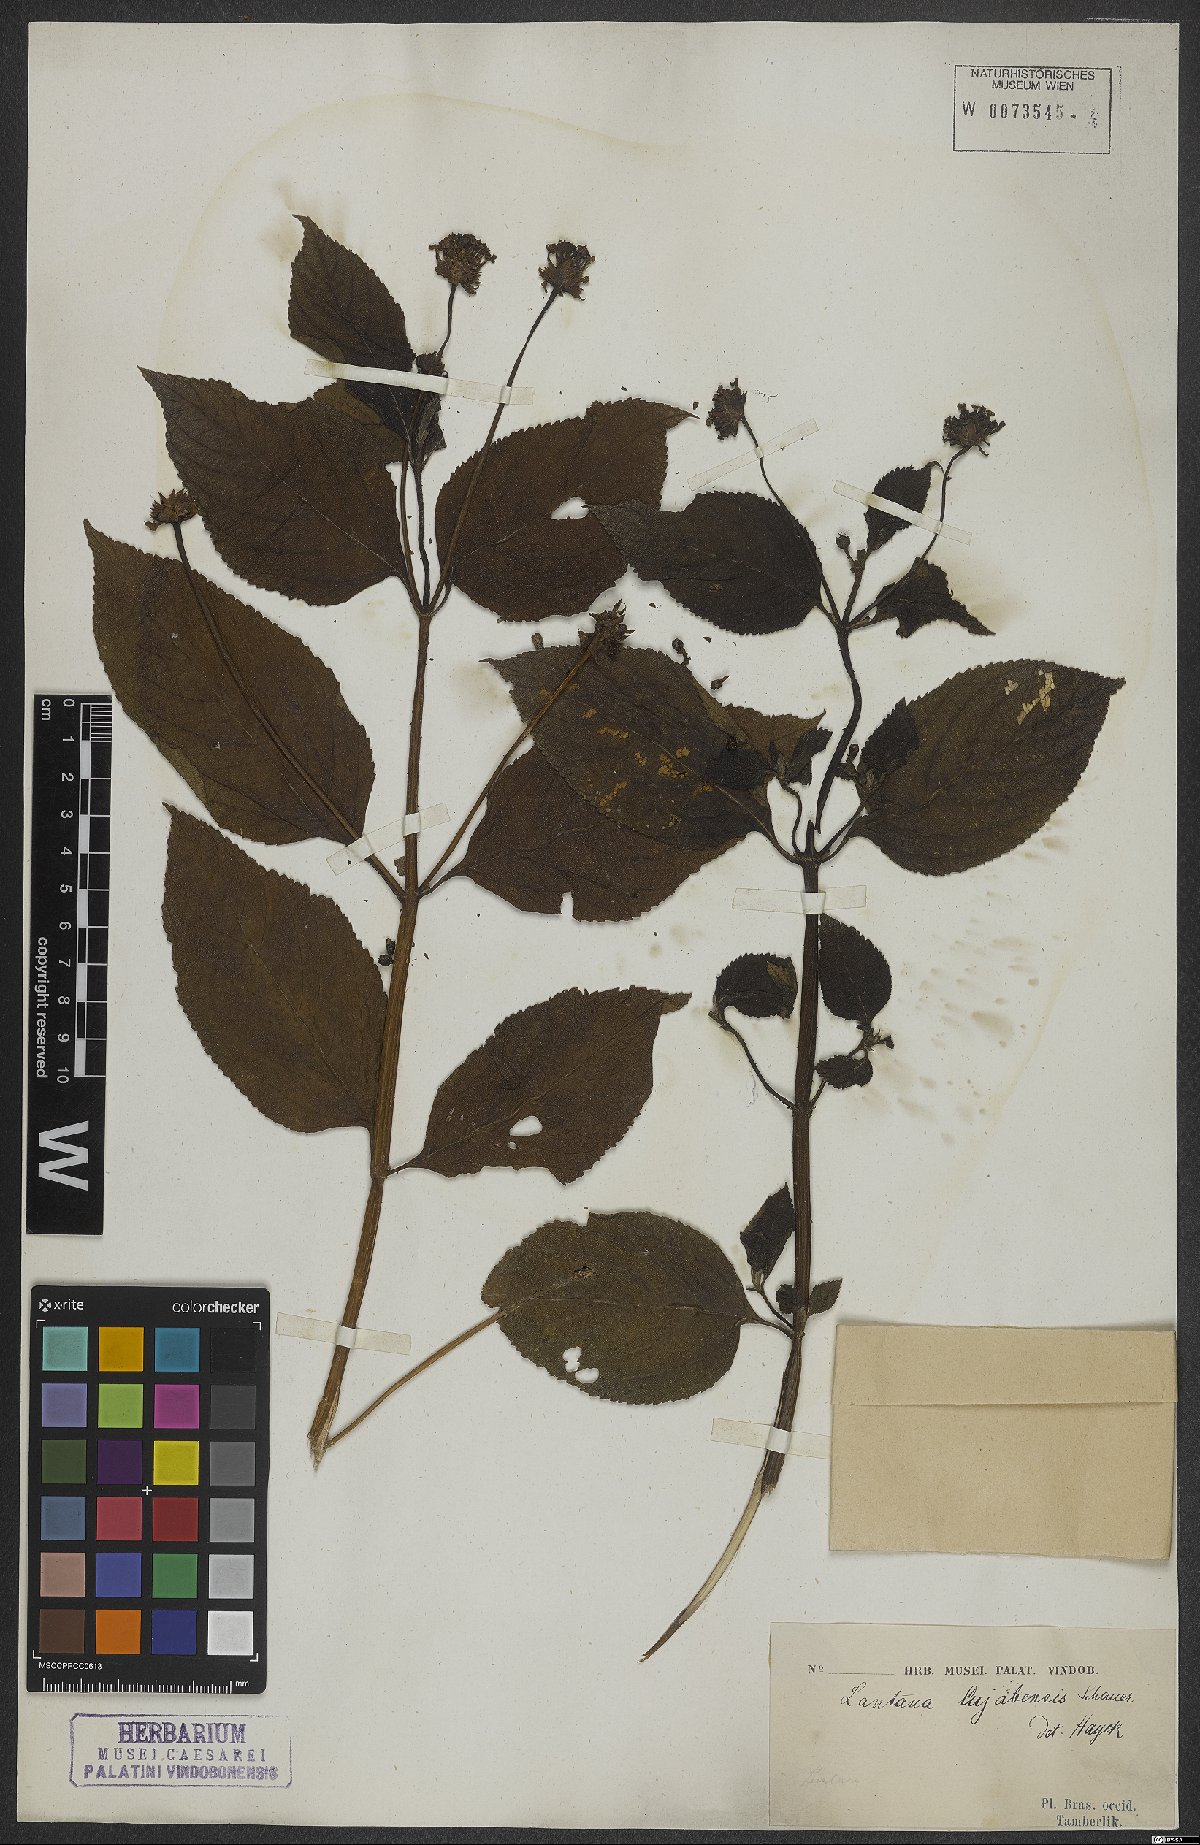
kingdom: Plantae
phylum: Tracheophyta
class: Magnoliopsida
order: Lamiales
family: Verbenaceae
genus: Lantana
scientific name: Lantana cujabensis
